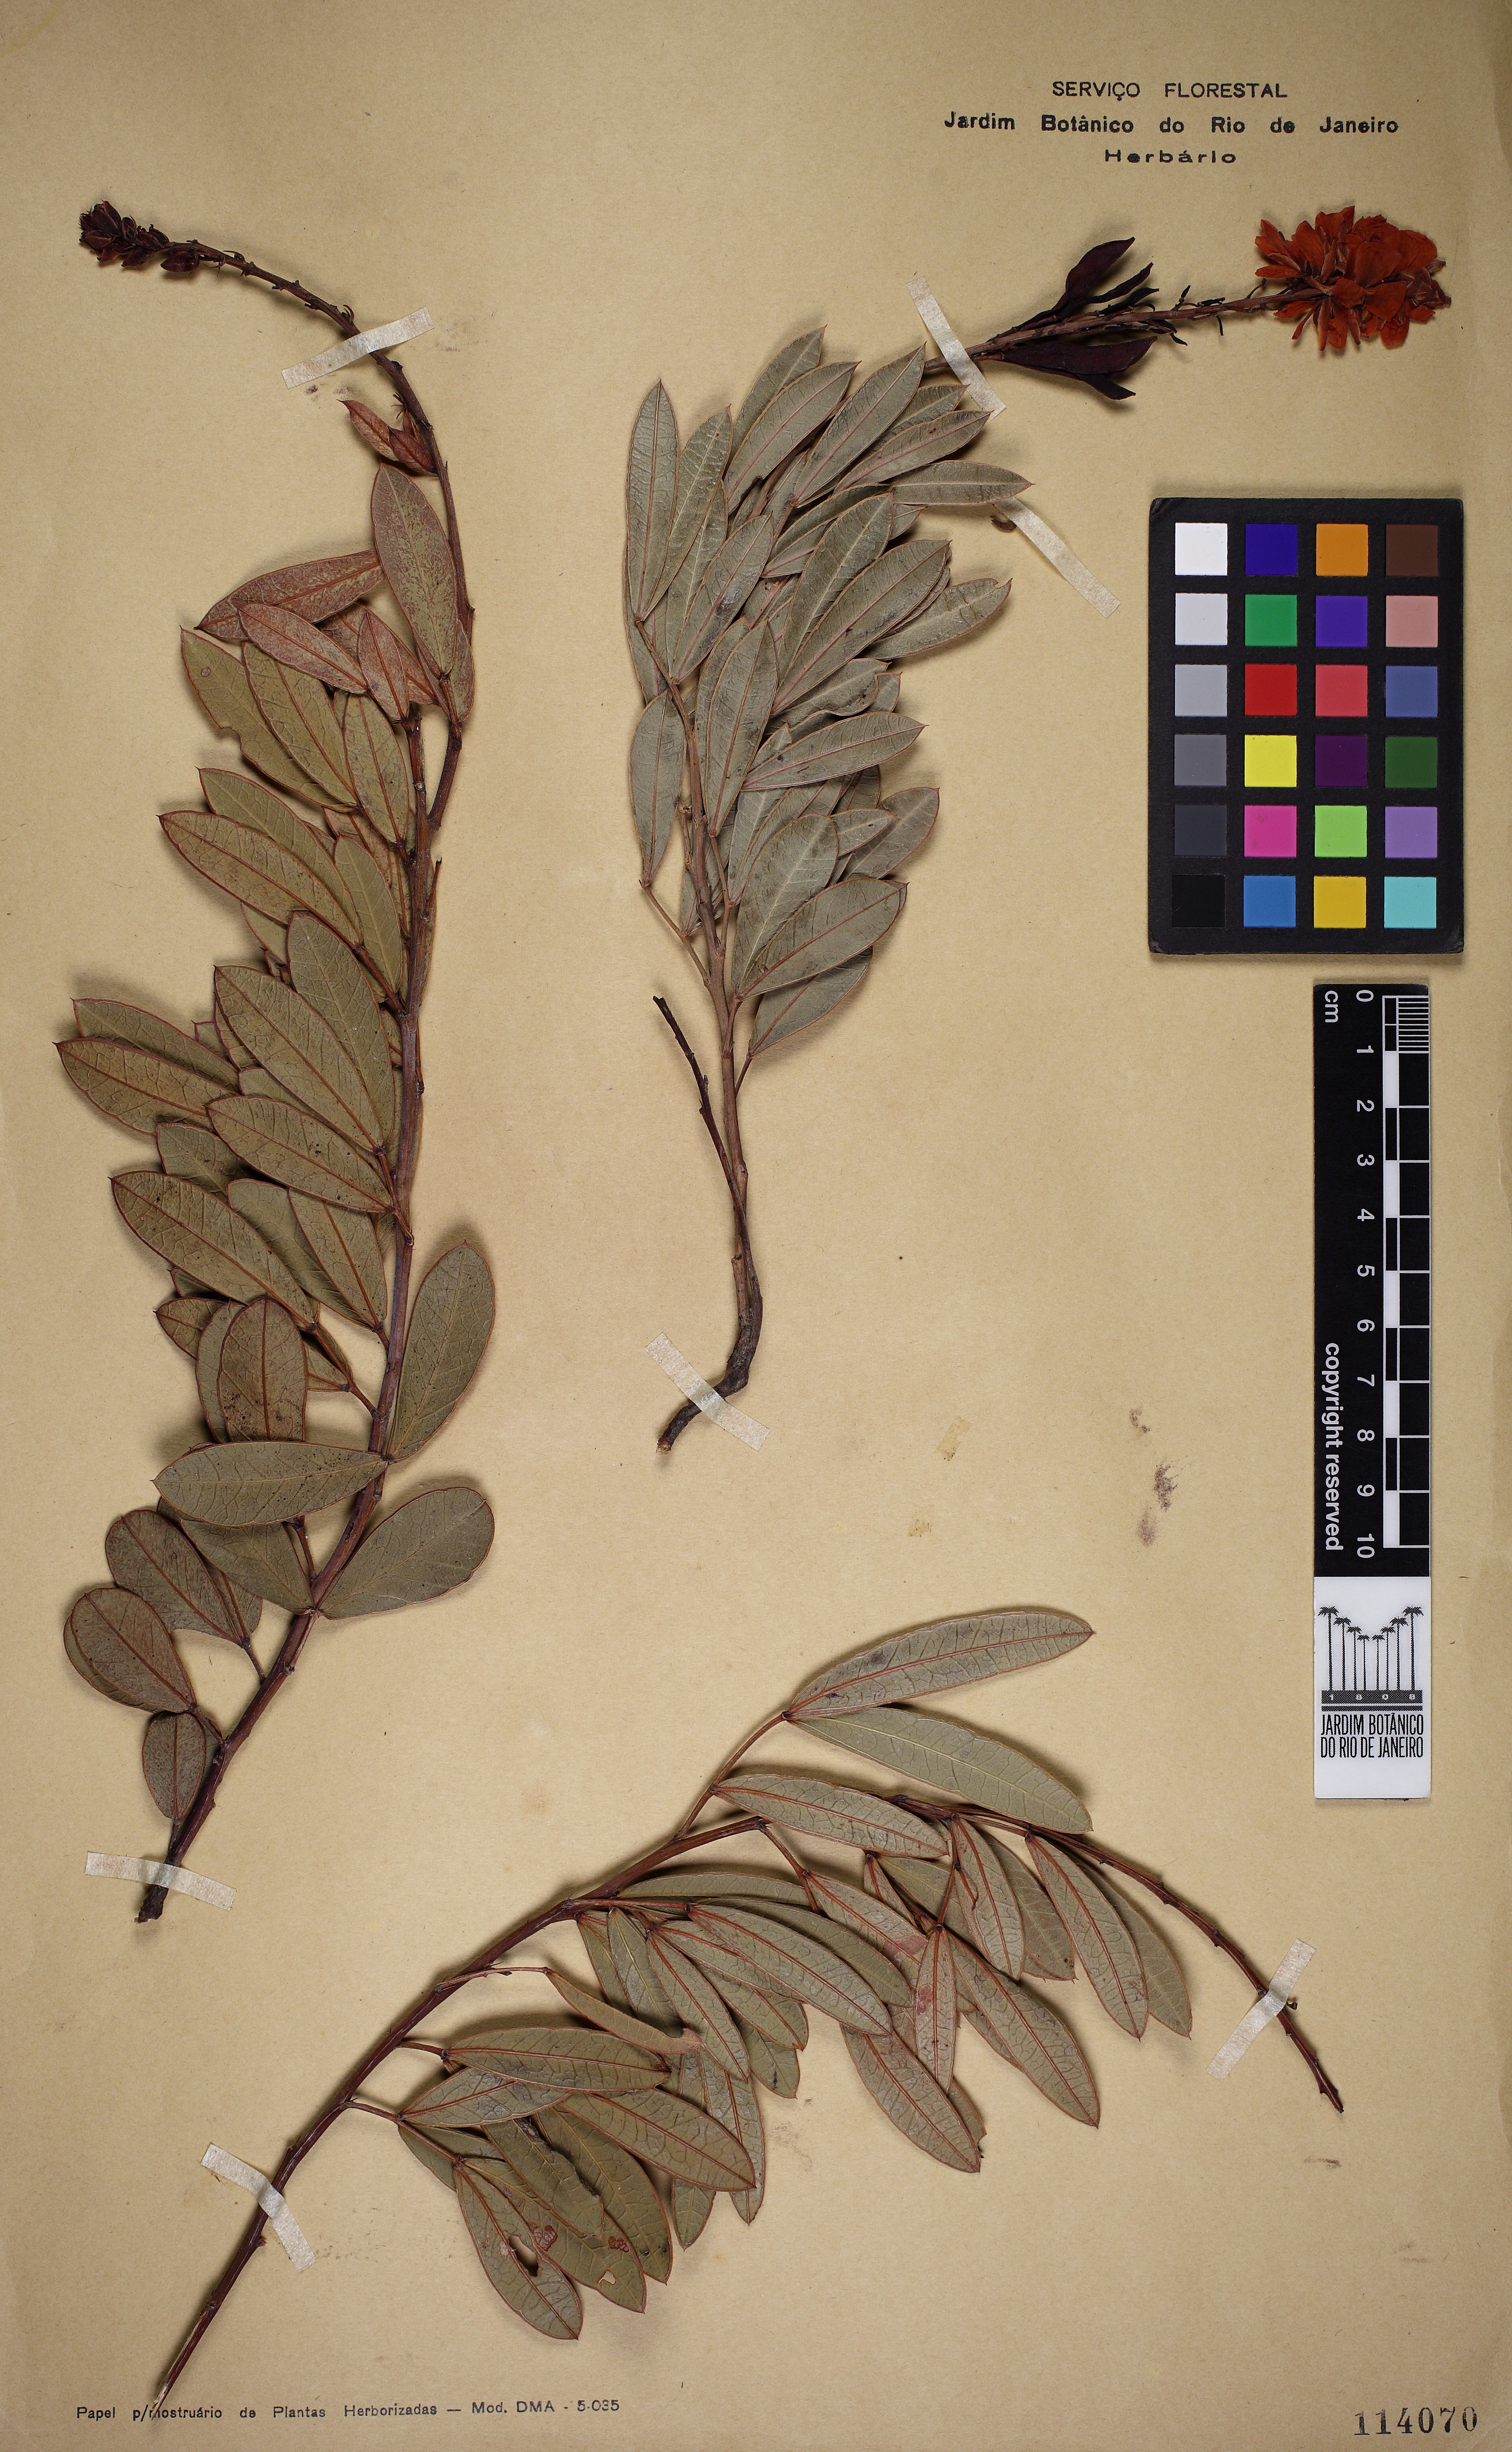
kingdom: Plantae
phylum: Tracheophyta
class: Magnoliopsida
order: Fabales
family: Fabaceae
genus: Chamaecrista
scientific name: Chamaecrista ochnacea
